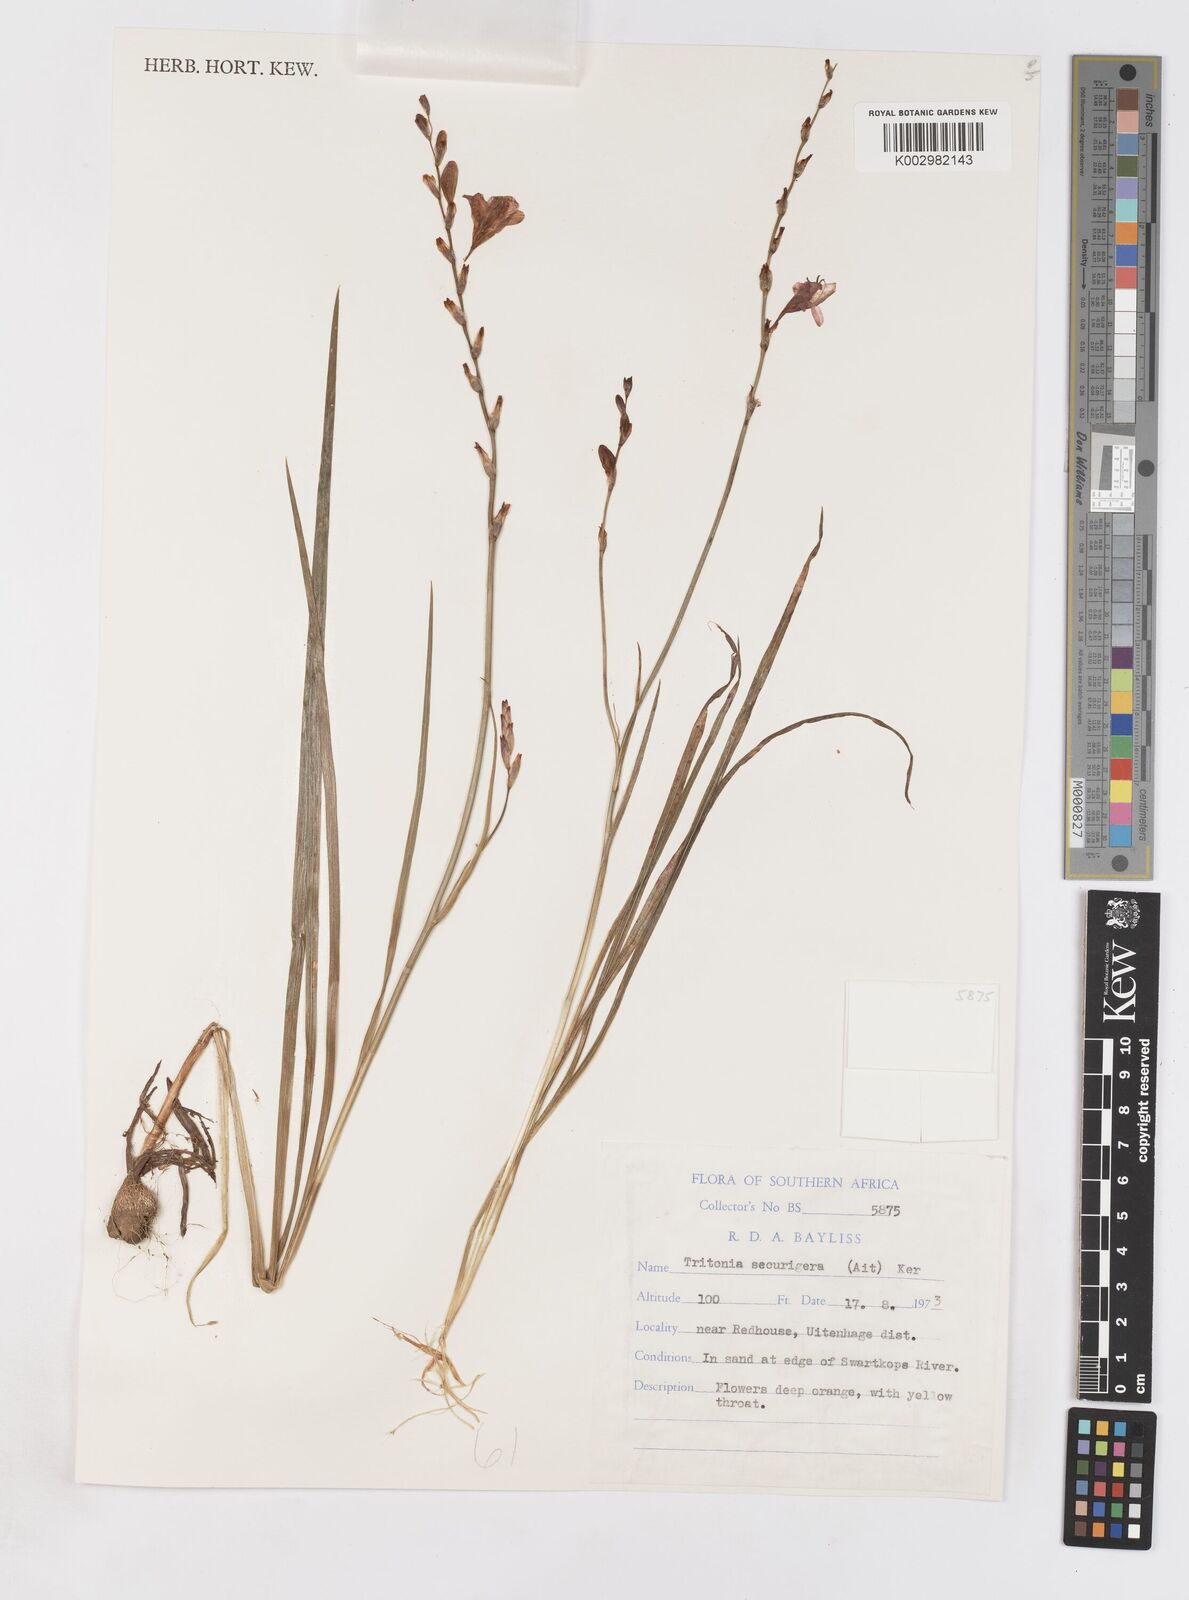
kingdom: Plantae
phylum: Tracheophyta
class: Liliopsida
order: Asparagales
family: Iridaceae
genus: Tritonia
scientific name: Tritonia securigera
